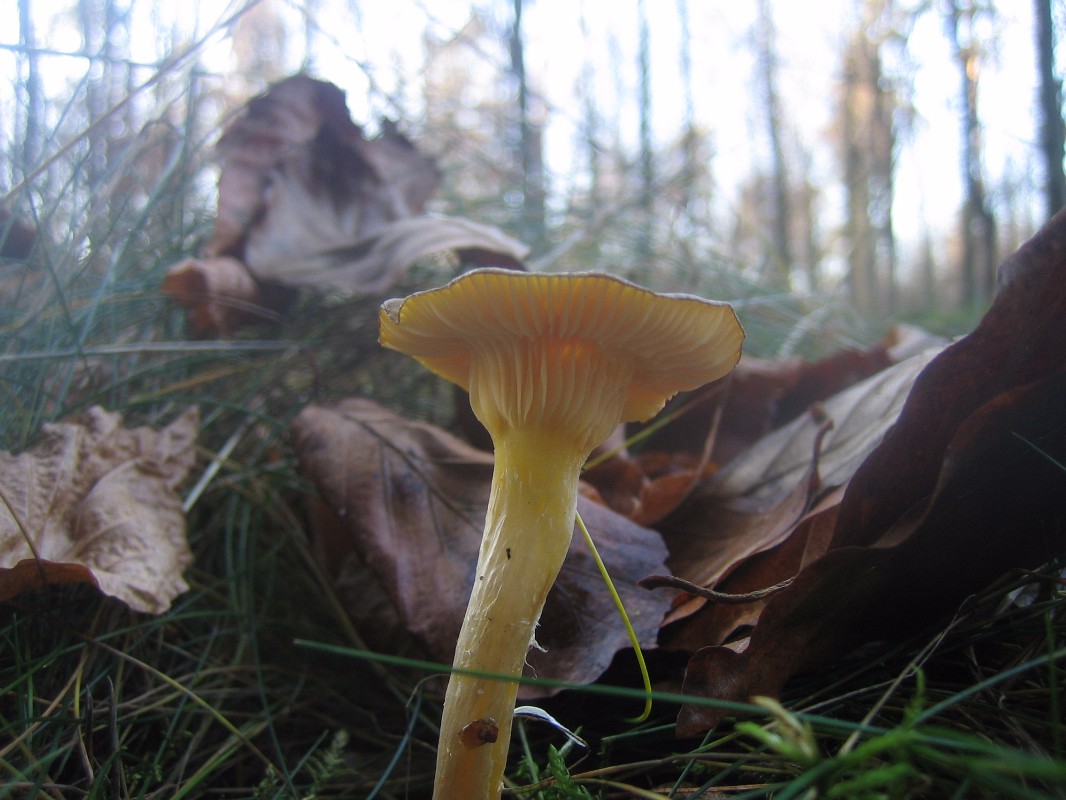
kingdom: Fungi
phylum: Basidiomycota
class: Agaricomycetes
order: Agaricales
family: Hygrophoraceae
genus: Hygrophorus
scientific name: Hygrophorus hypothejus
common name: frost-sneglehat
